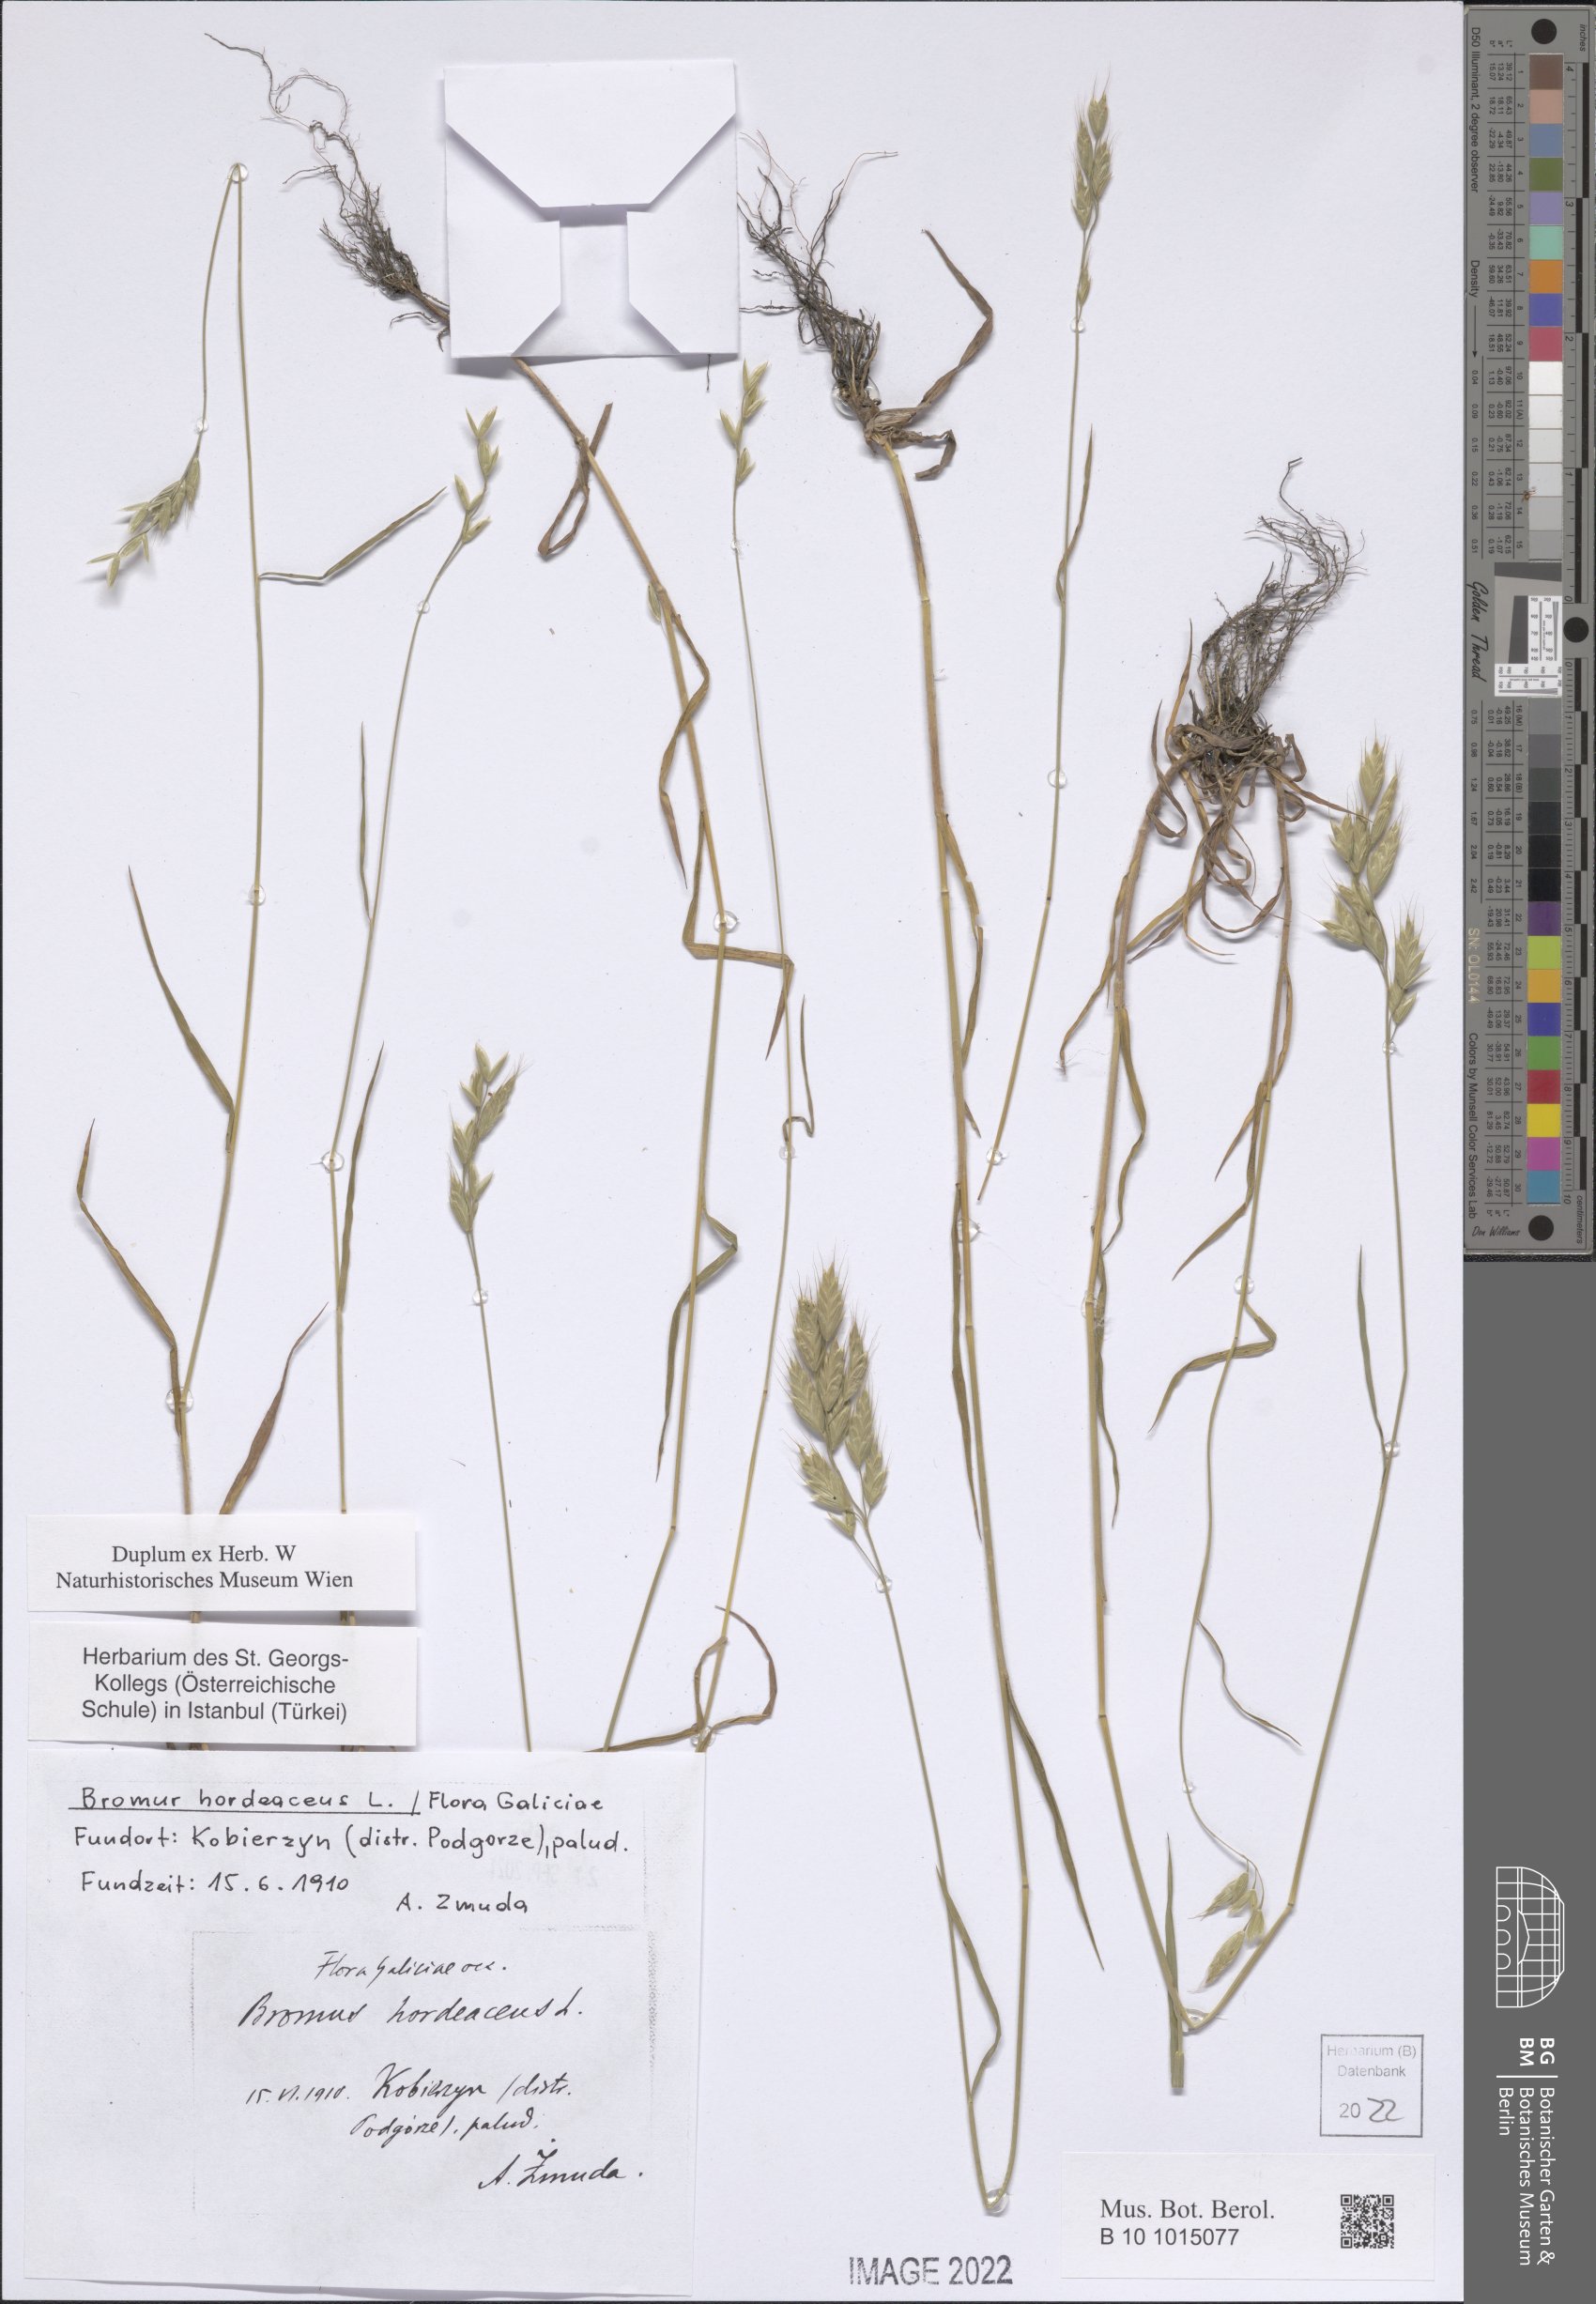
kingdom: Plantae
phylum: Tracheophyta
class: Liliopsida
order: Poales
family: Poaceae
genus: Bromus
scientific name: Bromus hordeaceus
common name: Soft brome
